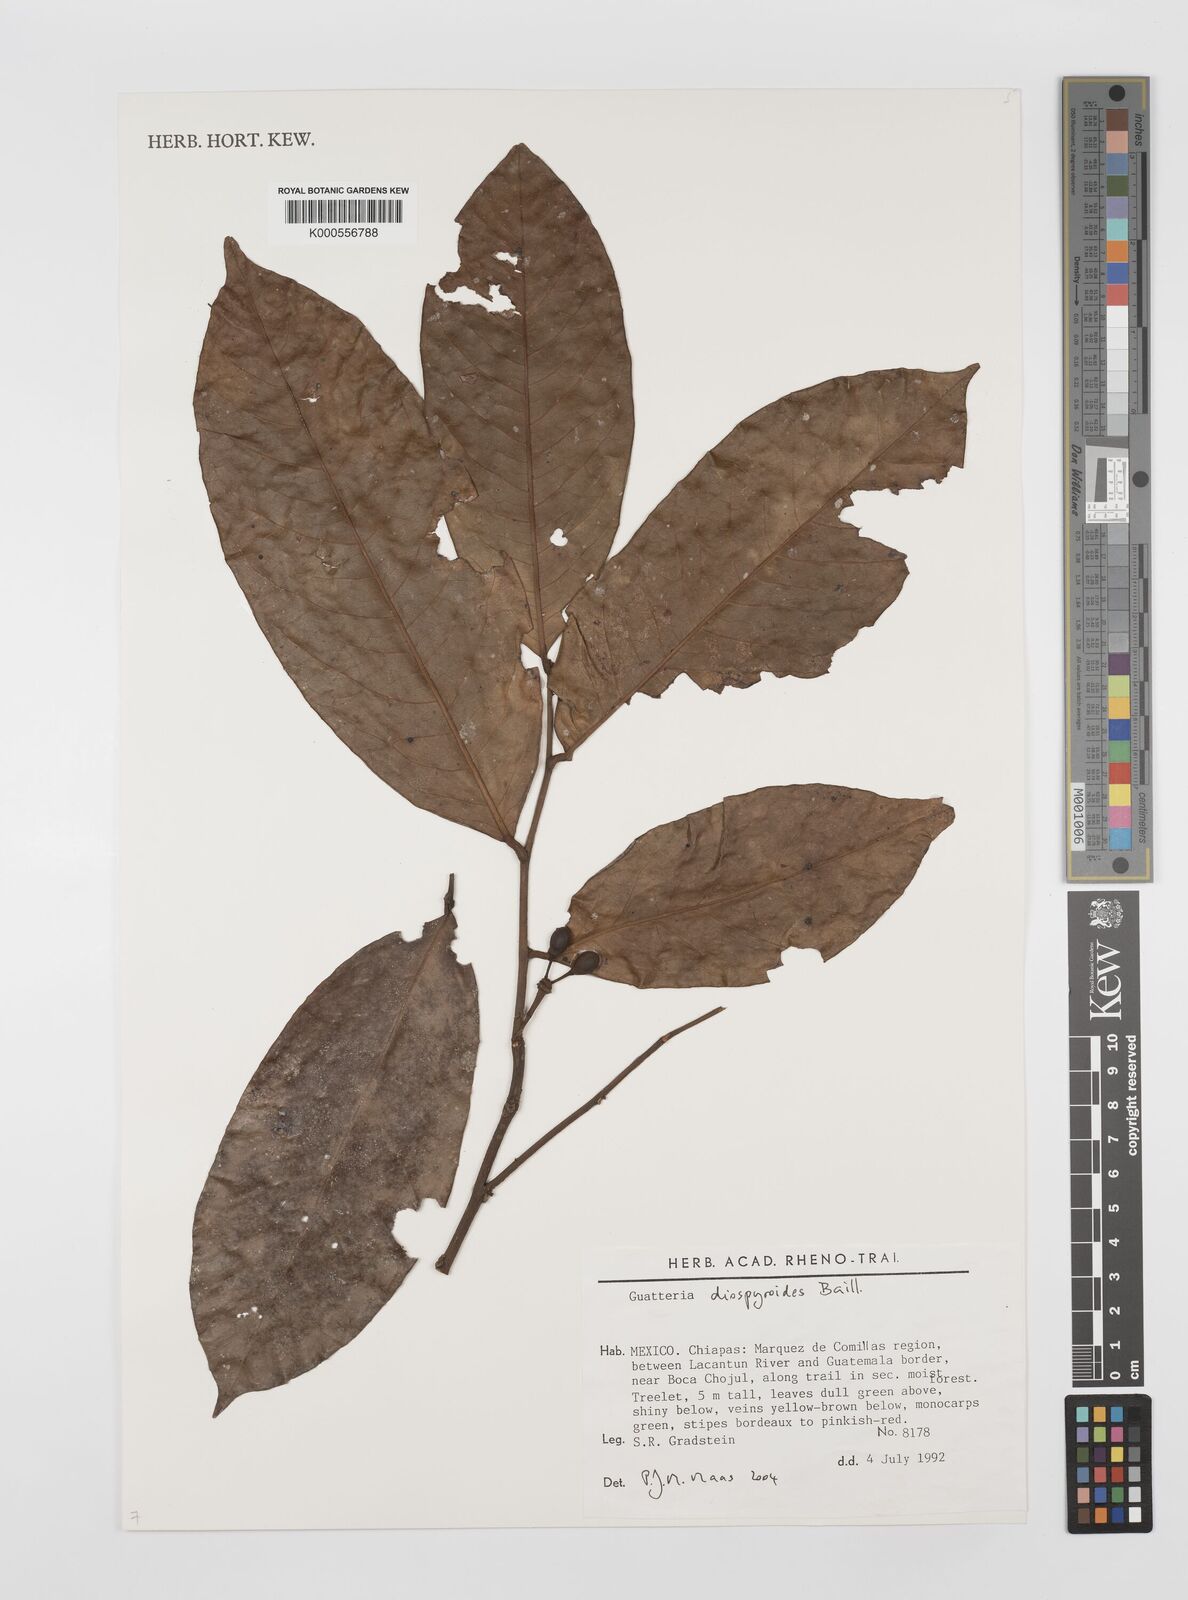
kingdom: Plantae
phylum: Tracheophyta
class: Magnoliopsida
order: Magnoliales
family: Annonaceae
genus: Guatteria
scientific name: Guatteria amplifolia
